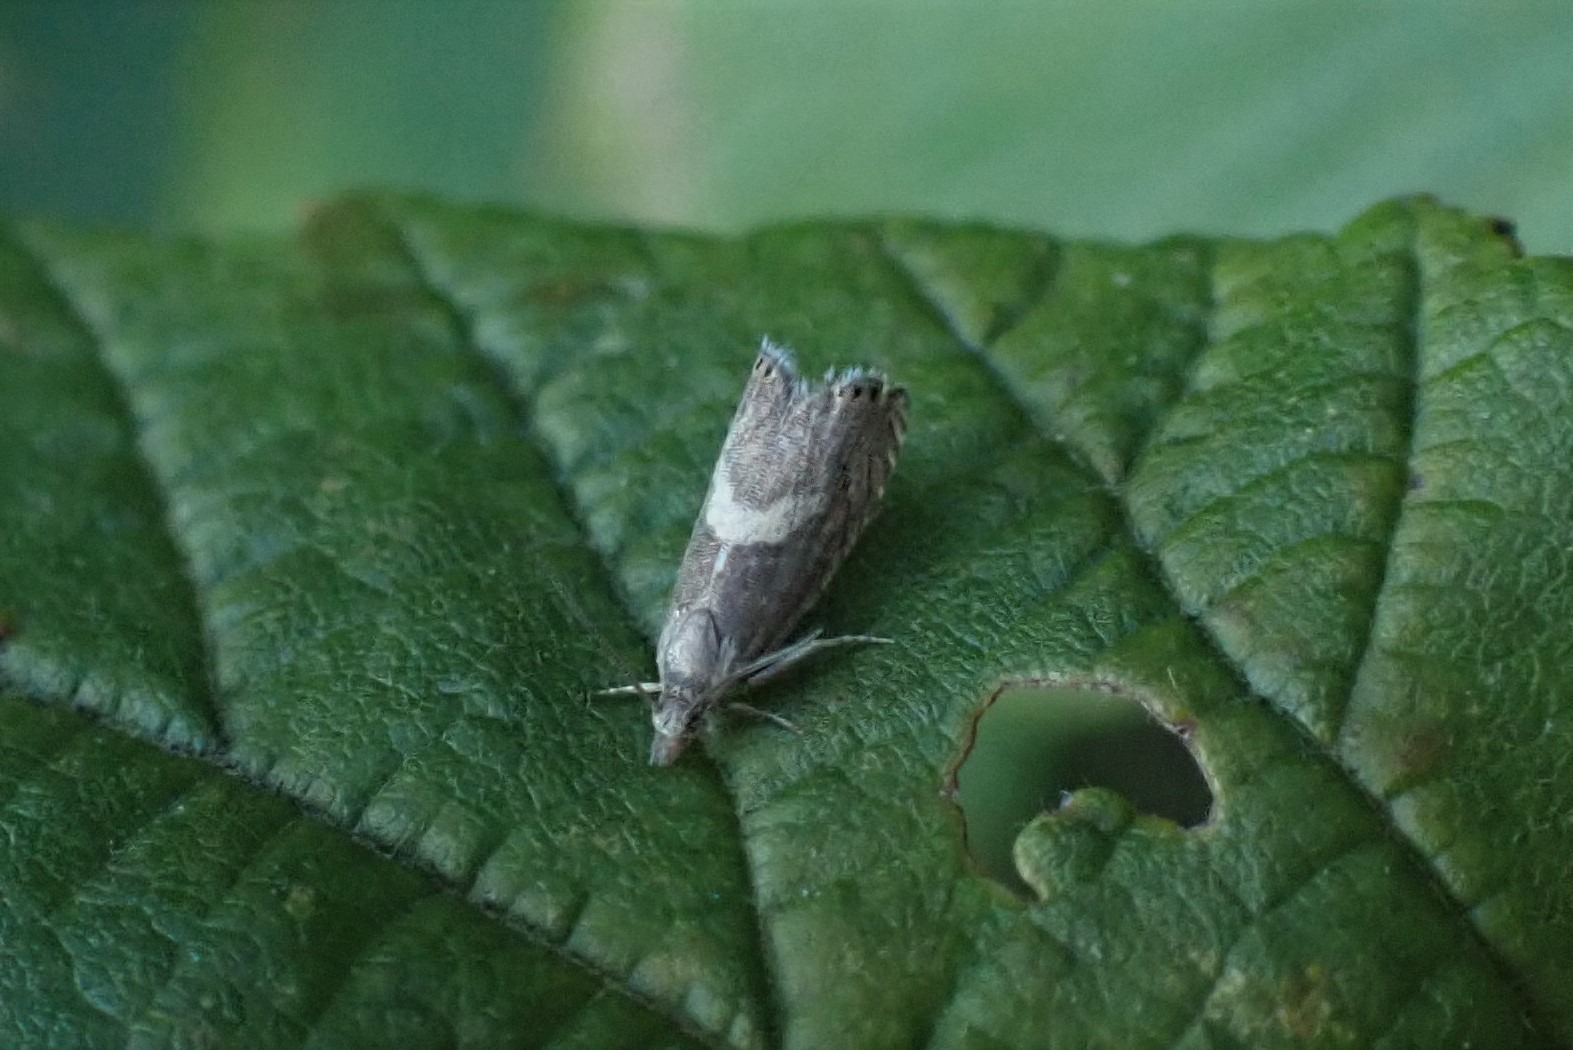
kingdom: Animalia
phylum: Arthropoda
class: Insecta
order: Lepidoptera
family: Tortricidae
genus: Dichrorampha
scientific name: Dichrorampha petiverella
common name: Lille røllikerodvikler
